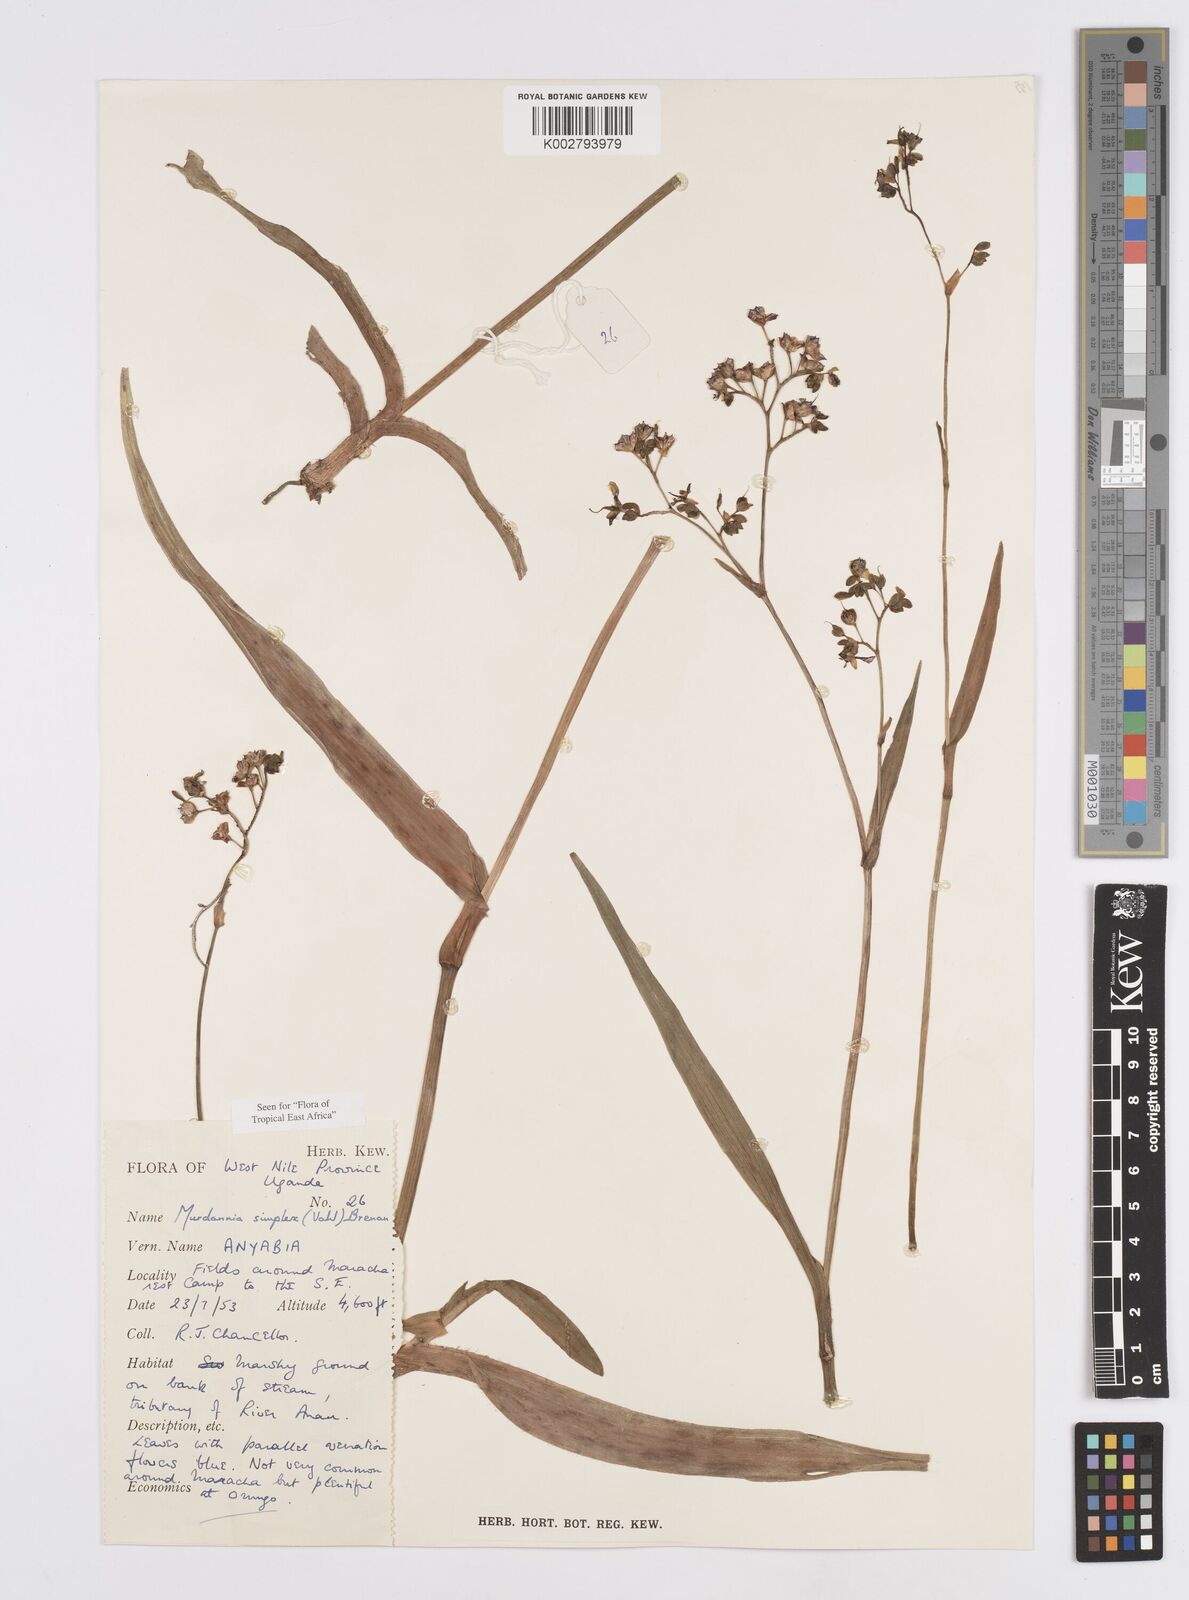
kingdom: Plantae
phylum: Tracheophyta
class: Liliopsida
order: Commelinales
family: Commelinaceae
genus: Murdannia
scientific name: Murdannia simplex
